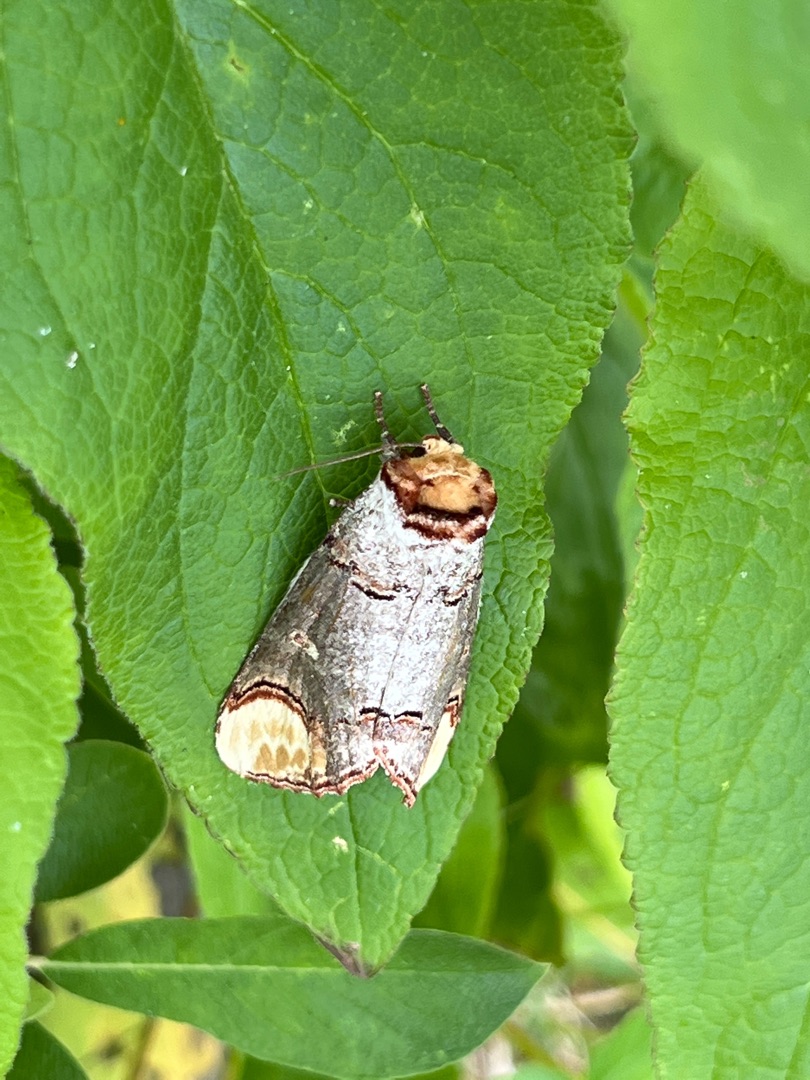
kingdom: Animalia
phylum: Arthropoda
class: Insecta
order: Lepidoptera
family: Notodontidae
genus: Phalera
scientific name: Phalera bucephala
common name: Måneplet
